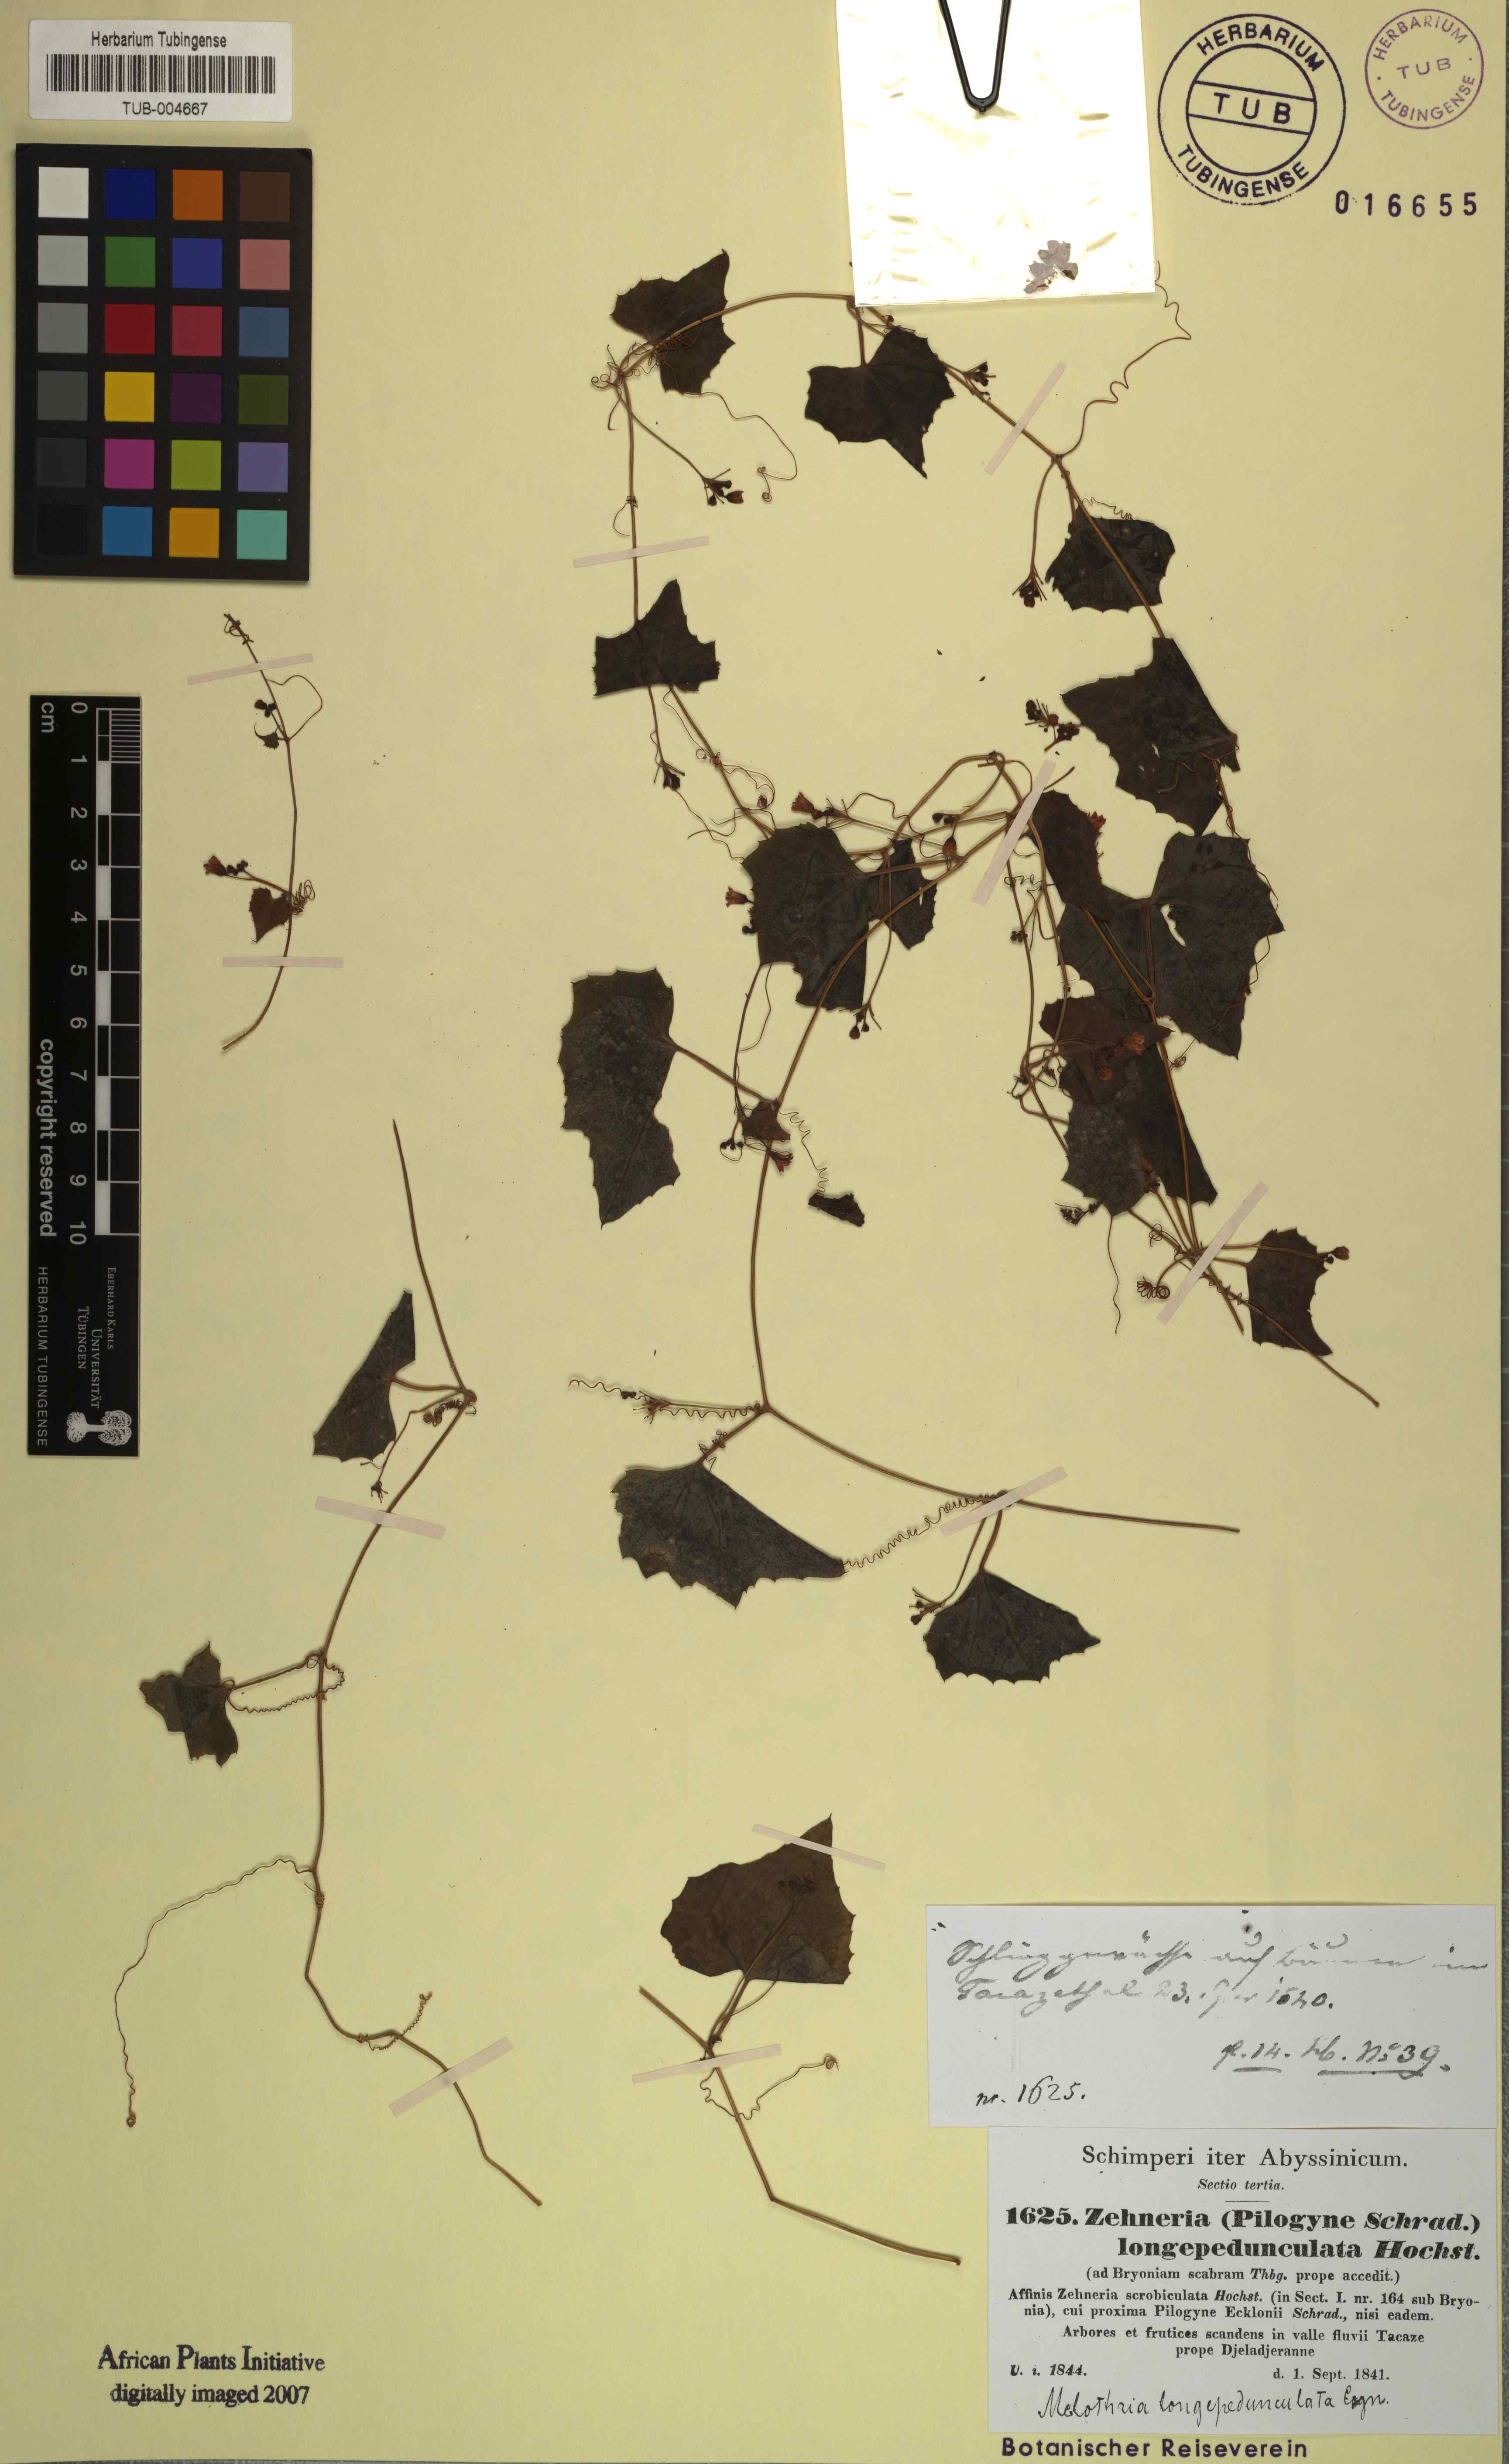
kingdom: Plantae
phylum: Tracheophyta
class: Magnoliopsida
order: Cucurbitales
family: Cucurbitaceae
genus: Melothria
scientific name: Melothria longipedunculata
